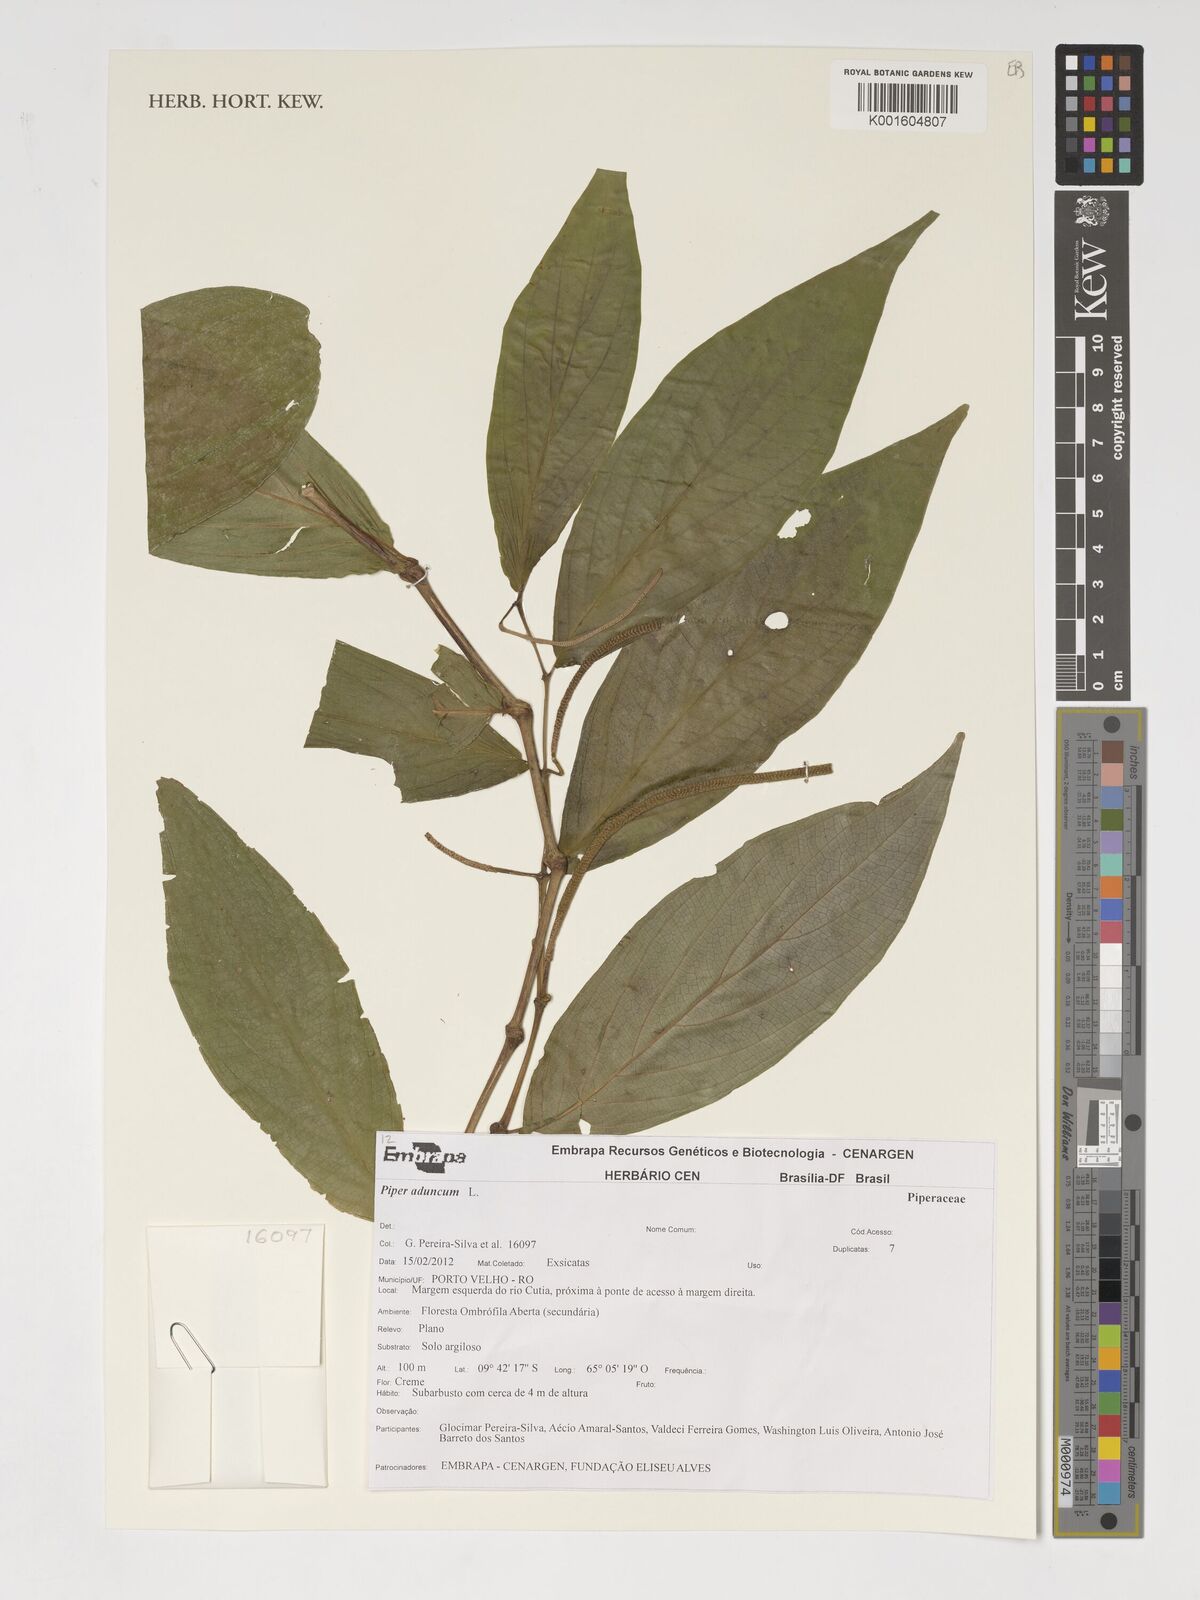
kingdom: Plantae
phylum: Tracheophyta
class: Magnoliopsida
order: Piperales
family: Piperaceae
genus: Piper
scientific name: Piper aduncum
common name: Spiked pepper
